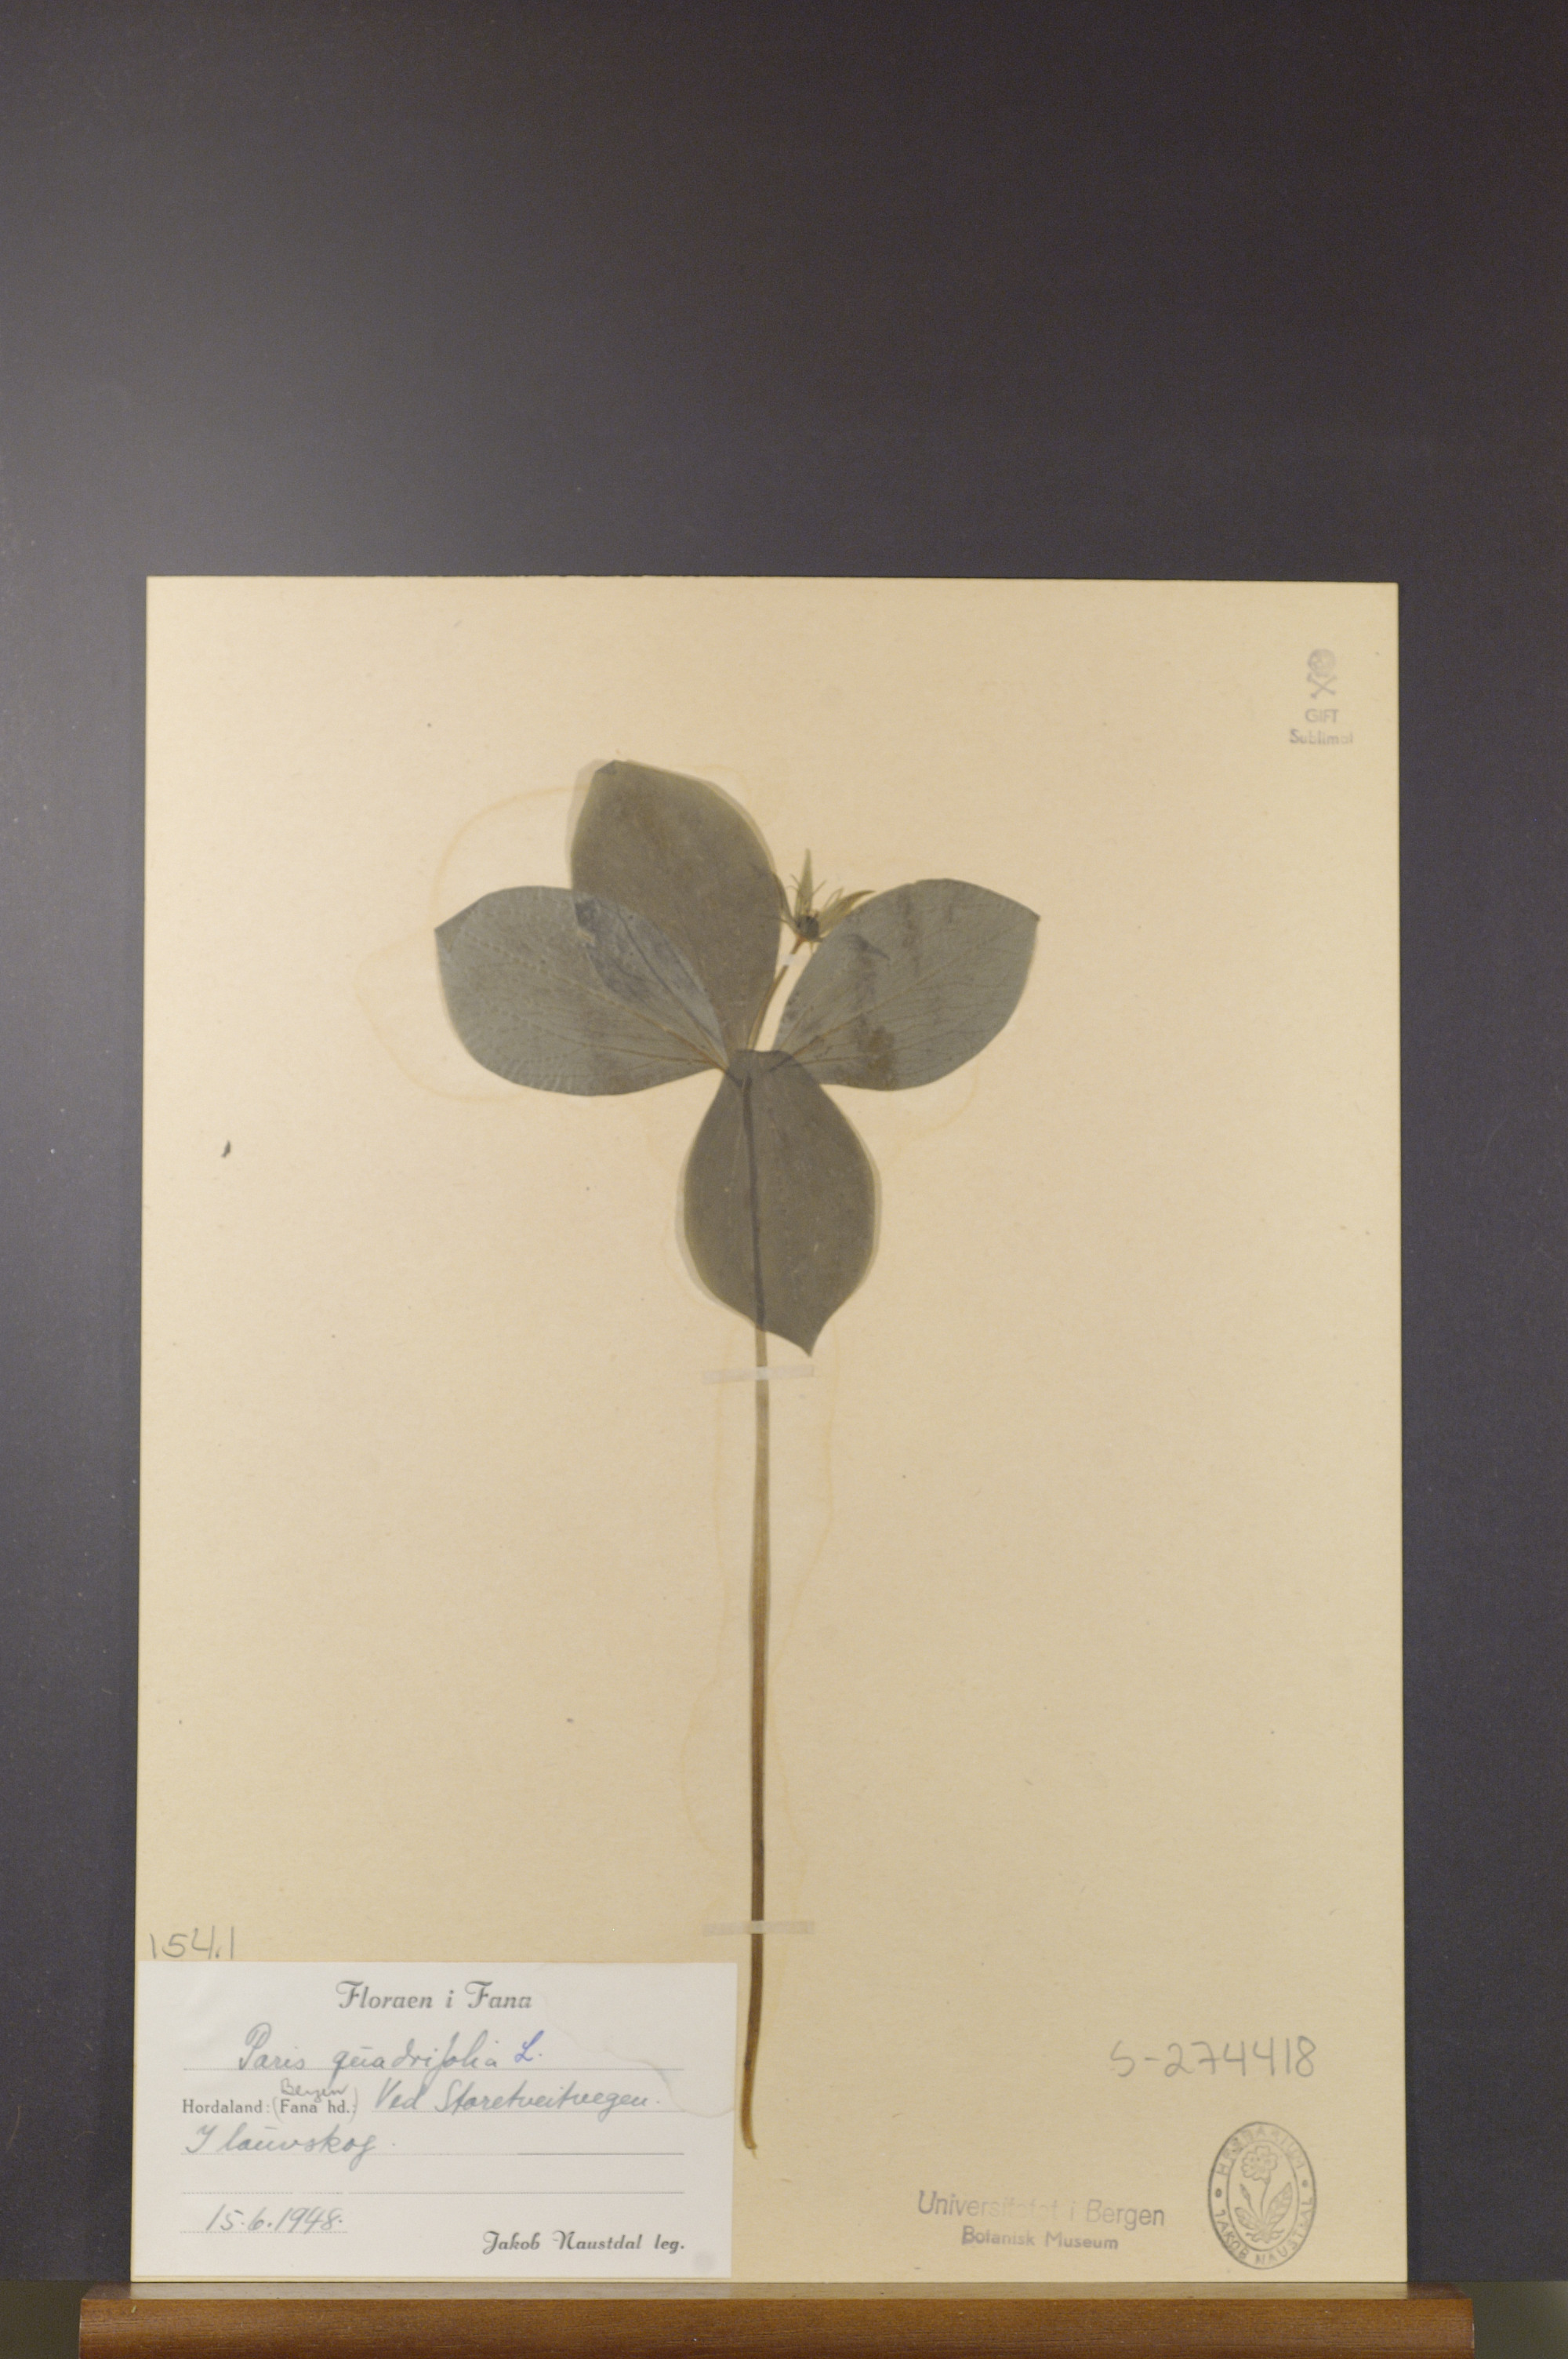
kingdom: Plantae
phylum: Tracheophyta
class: Liliopsida
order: Liliales
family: Melanthiaceae
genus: Paris
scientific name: Paris quadrifolia
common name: Herb-paris
